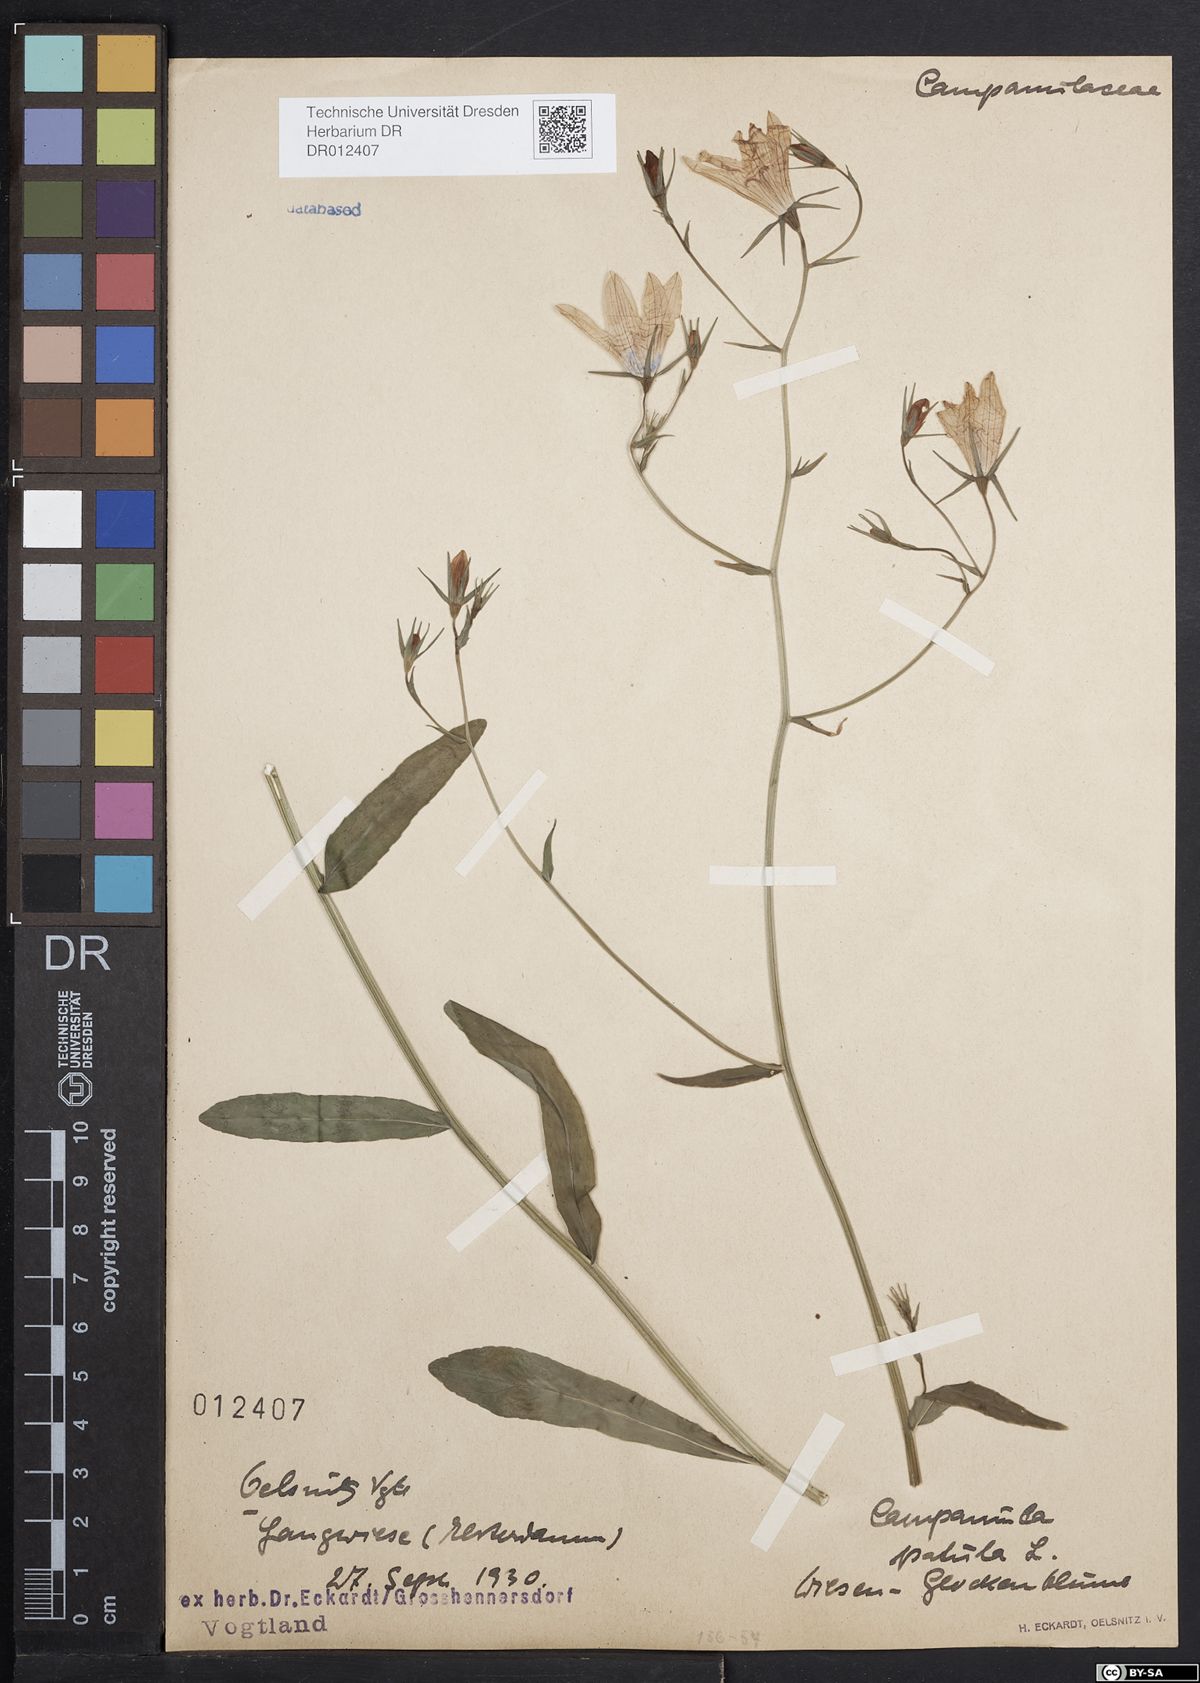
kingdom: Plantae
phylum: Tracheophyta
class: Magnoliopsida
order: Asterales
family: Campanulaceae
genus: Campanula
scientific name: Campanula patula
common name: Spreading bellflower
